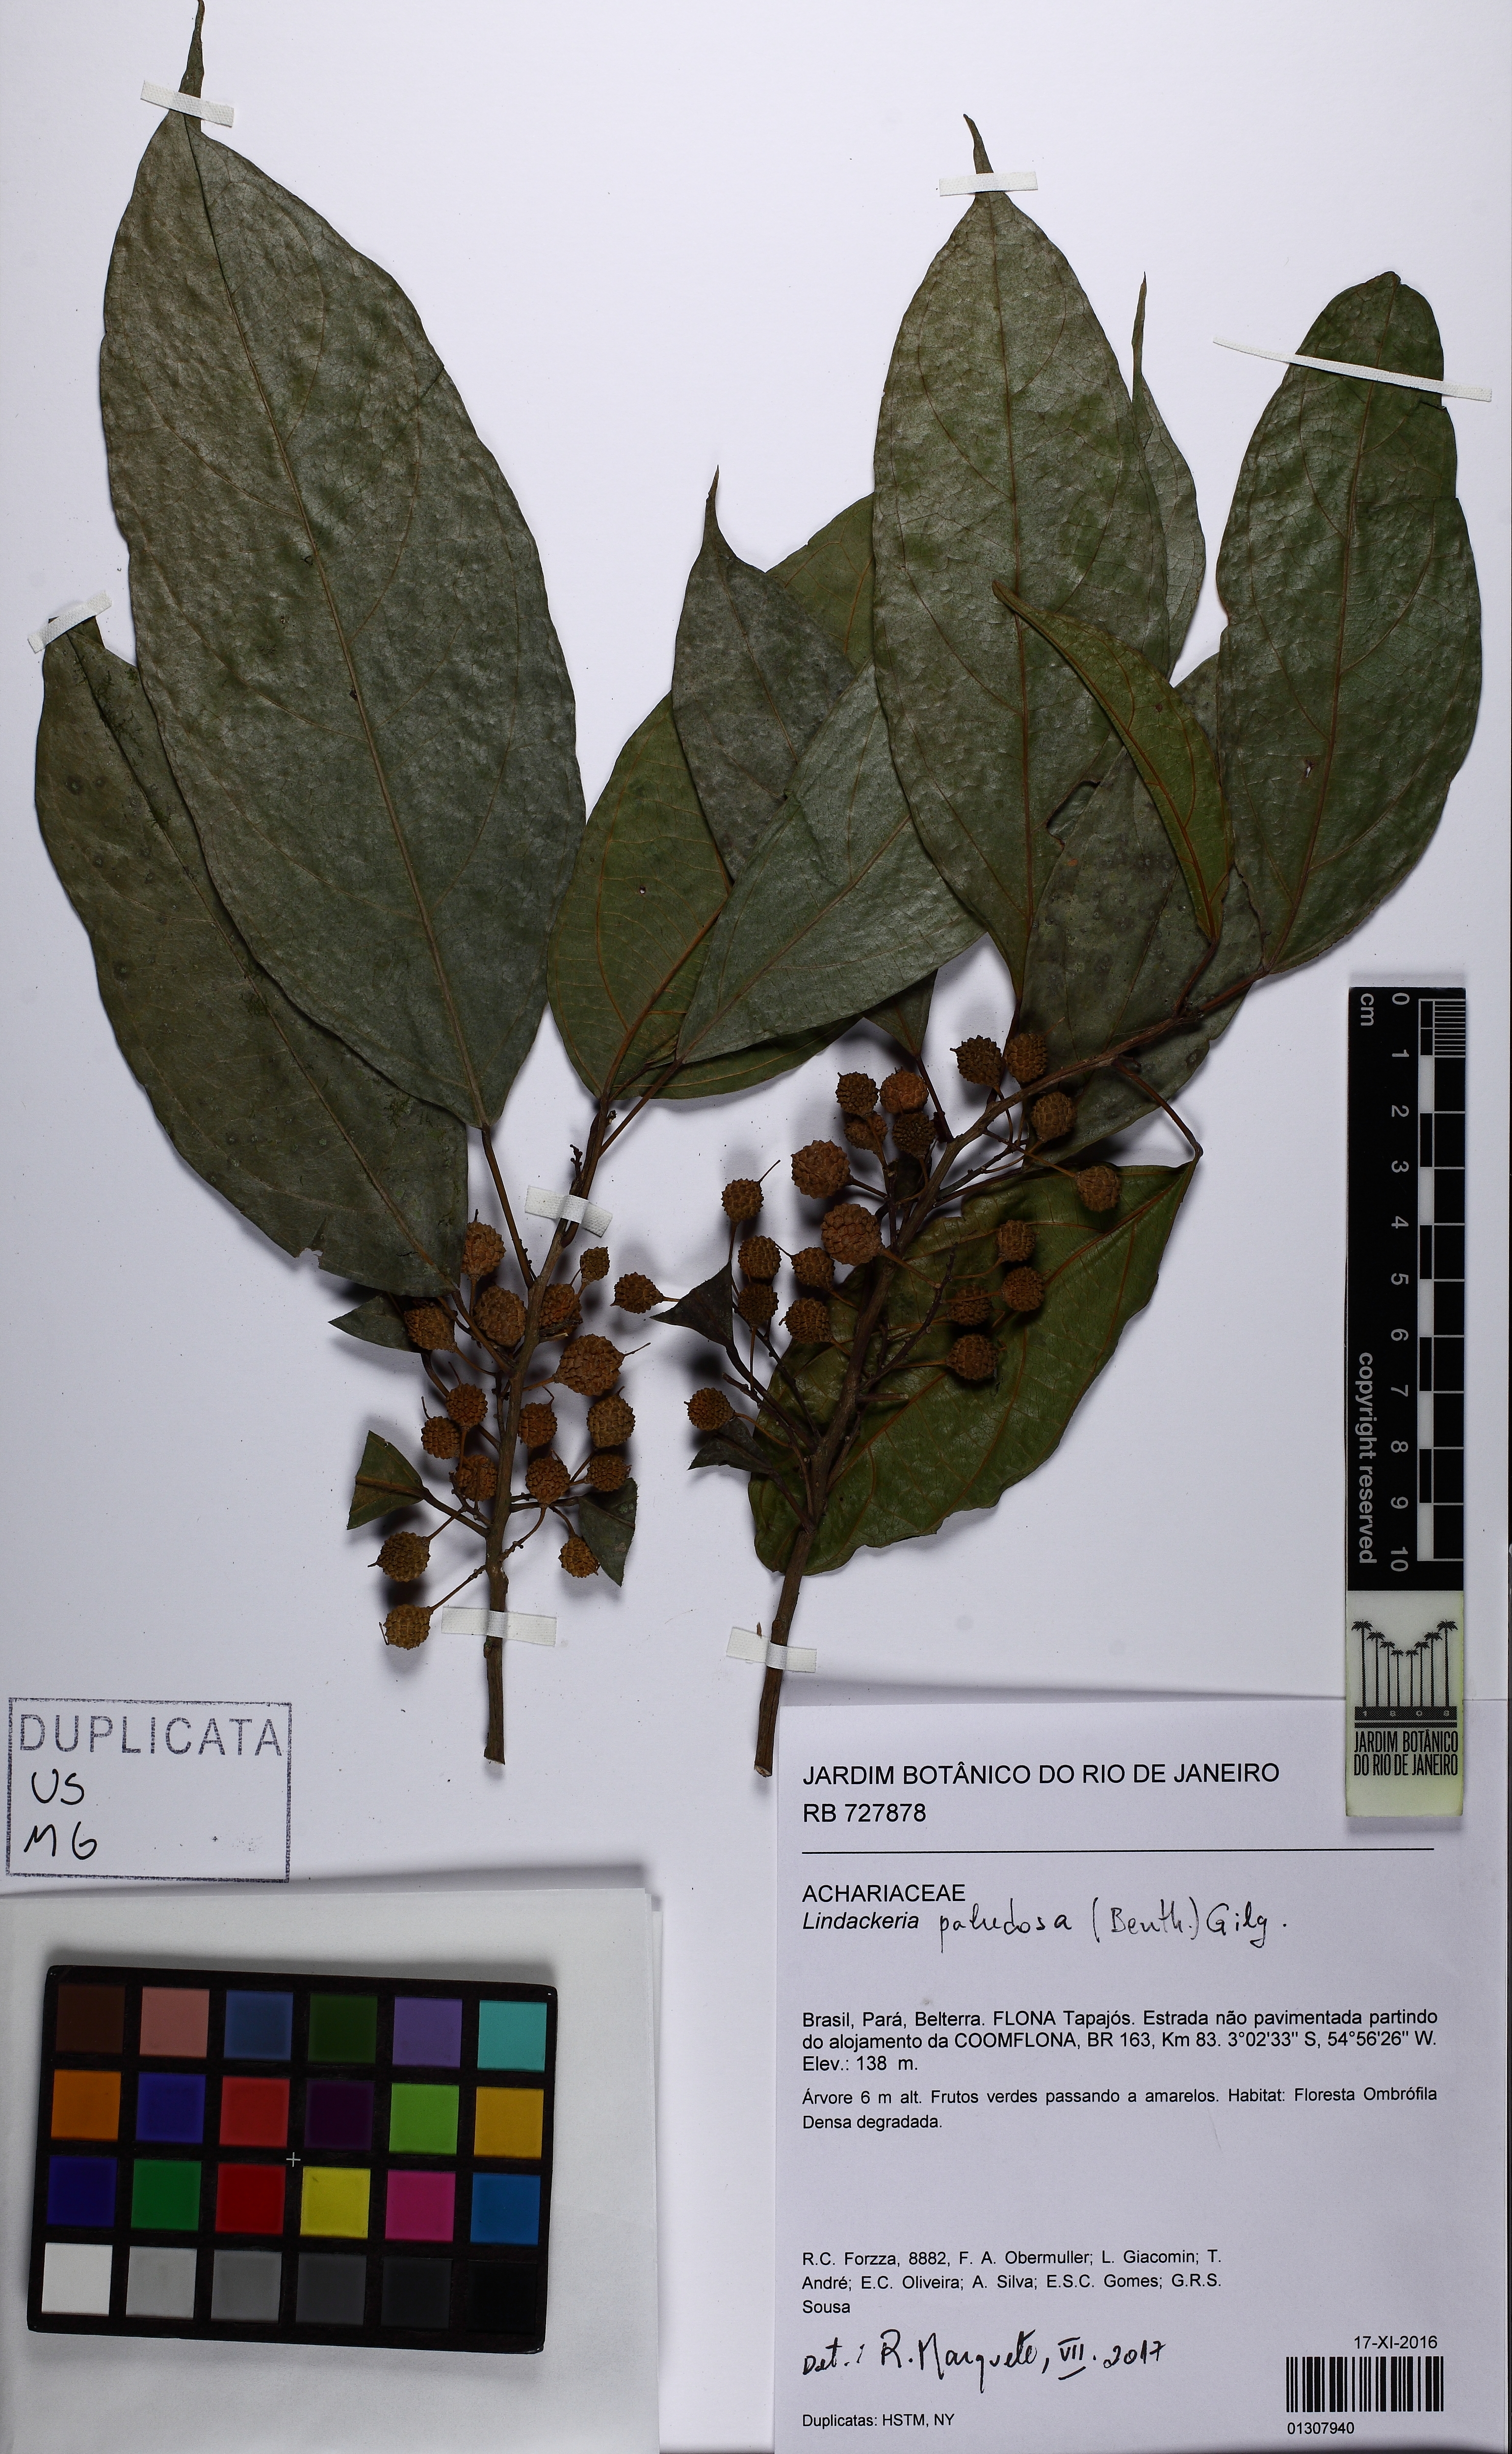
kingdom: Plantae
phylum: Tracheophyta
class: Magnoliopsida
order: Malpighiales
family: Achariaceae
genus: Lindackeria
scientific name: Lindackeria paludosa
